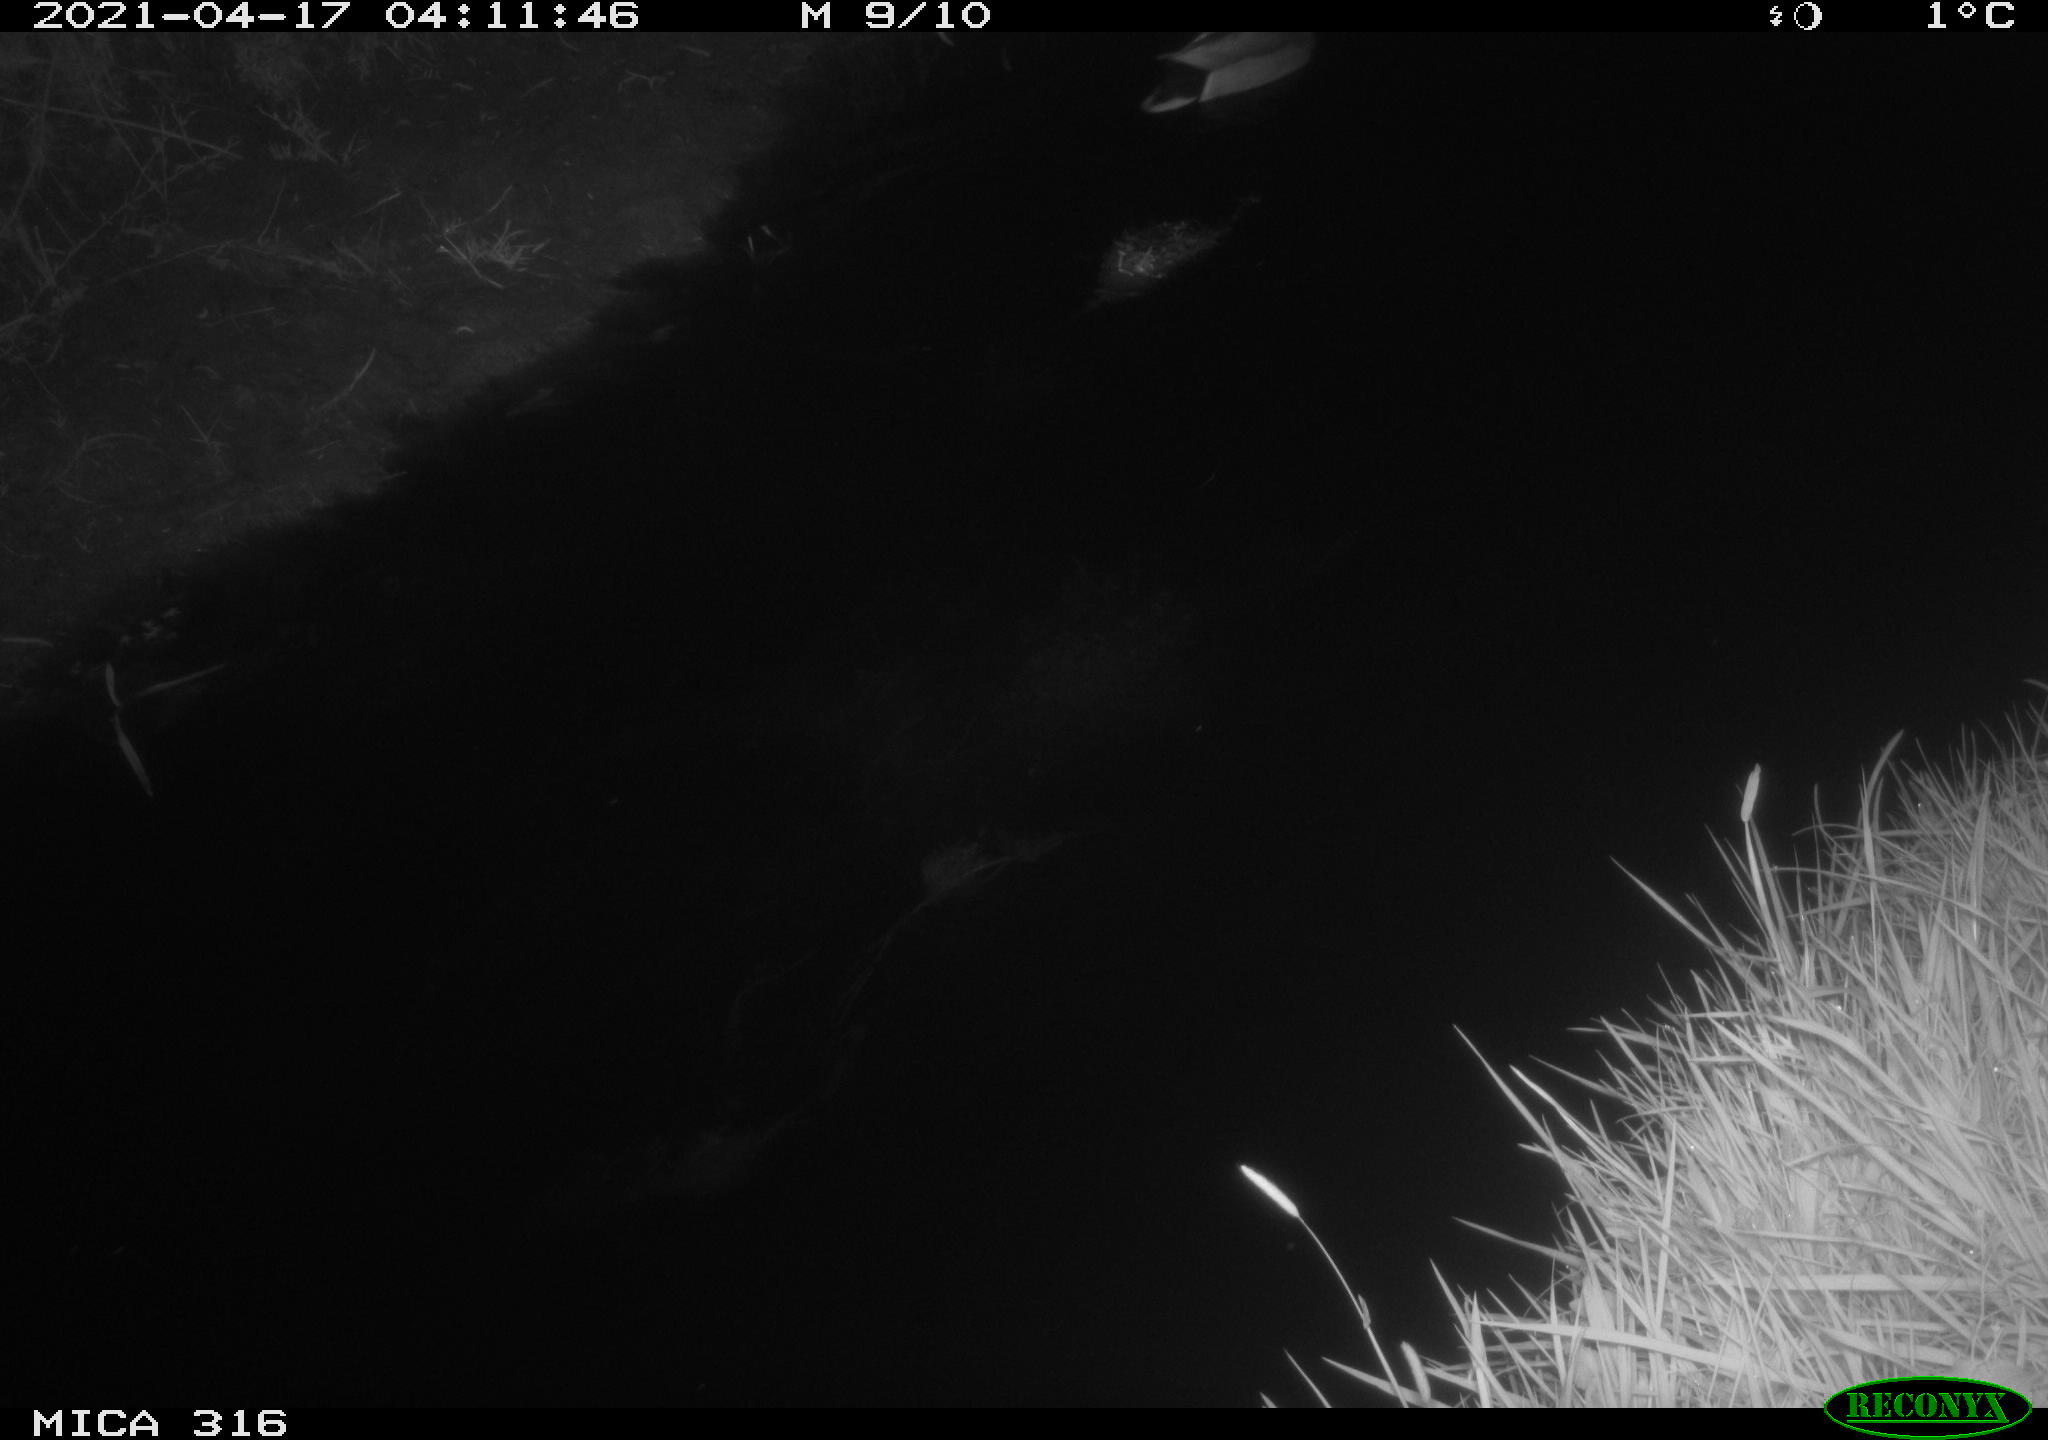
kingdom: Animalia
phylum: Chordata
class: Aves
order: Anseriformes
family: Anatidae
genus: Anas
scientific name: Anas platyrhynchos
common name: Mallard
